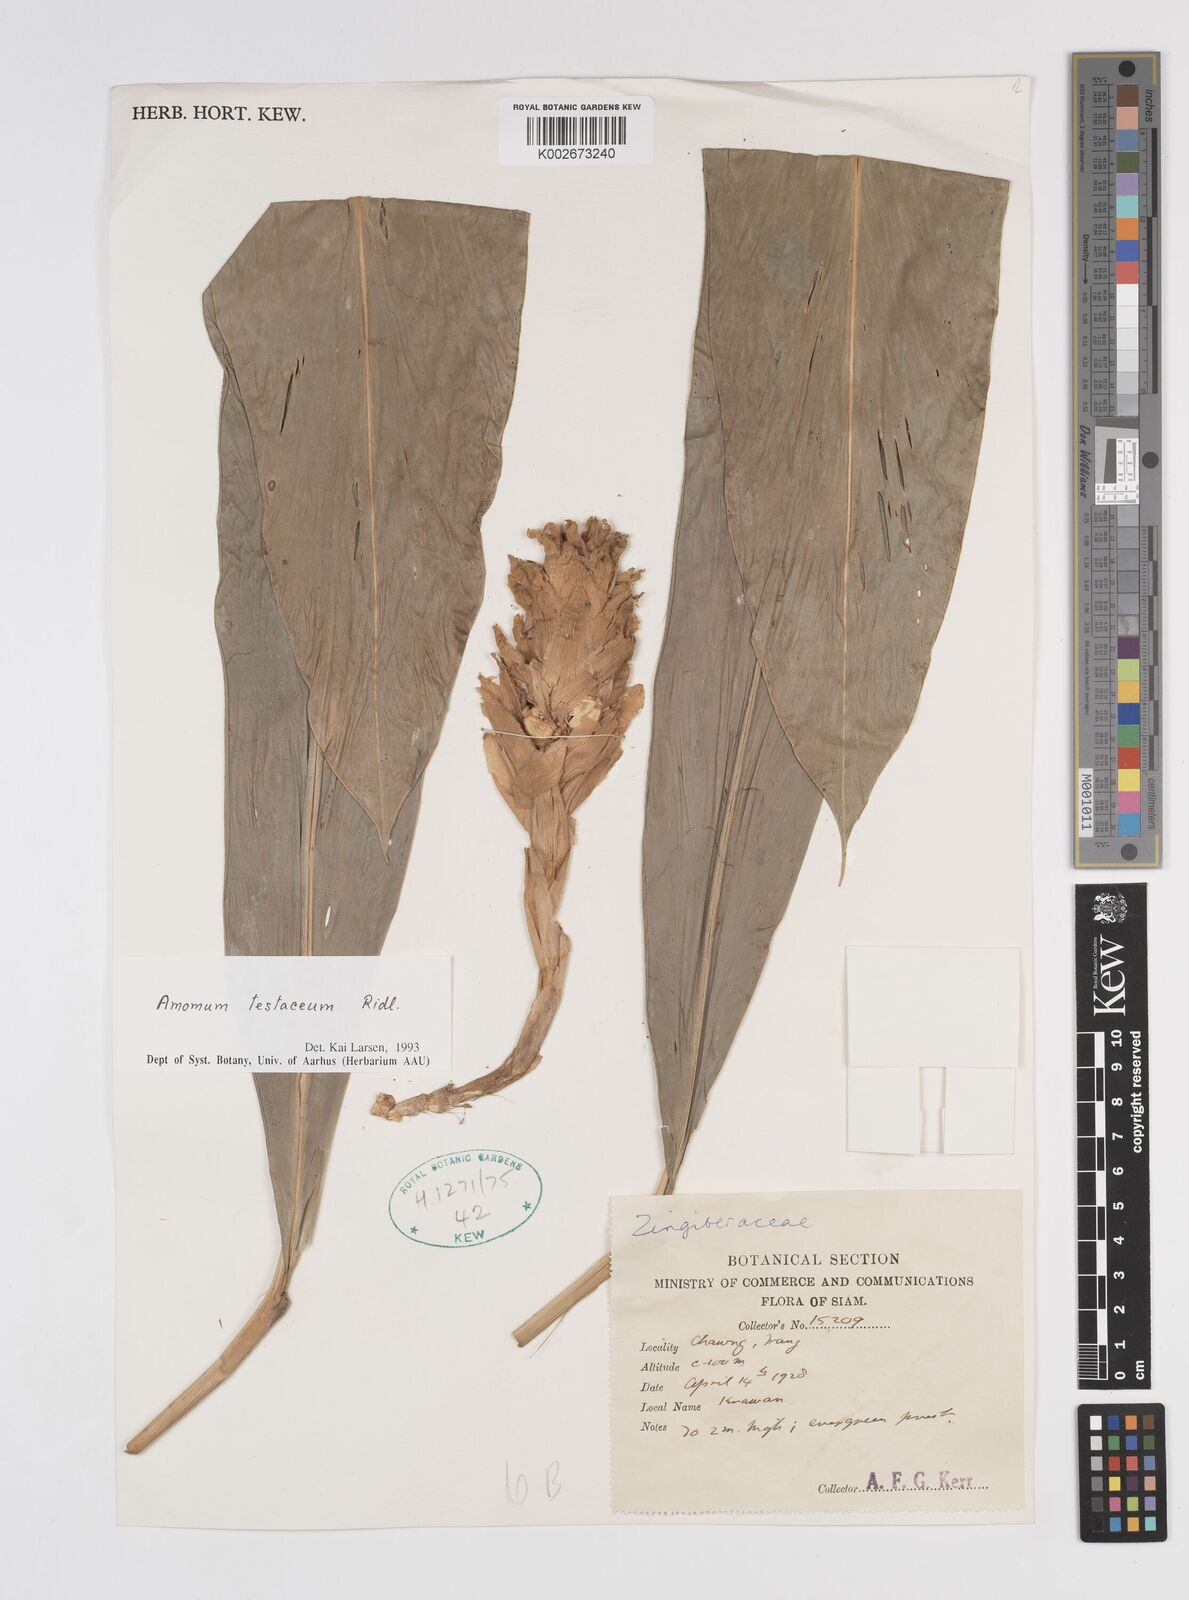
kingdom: Plantae
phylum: Tracheophyta
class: Liliopsida
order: Zingiberales
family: Zingiberaceae
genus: Wurfbainia
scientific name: Wurfbainia testacea
